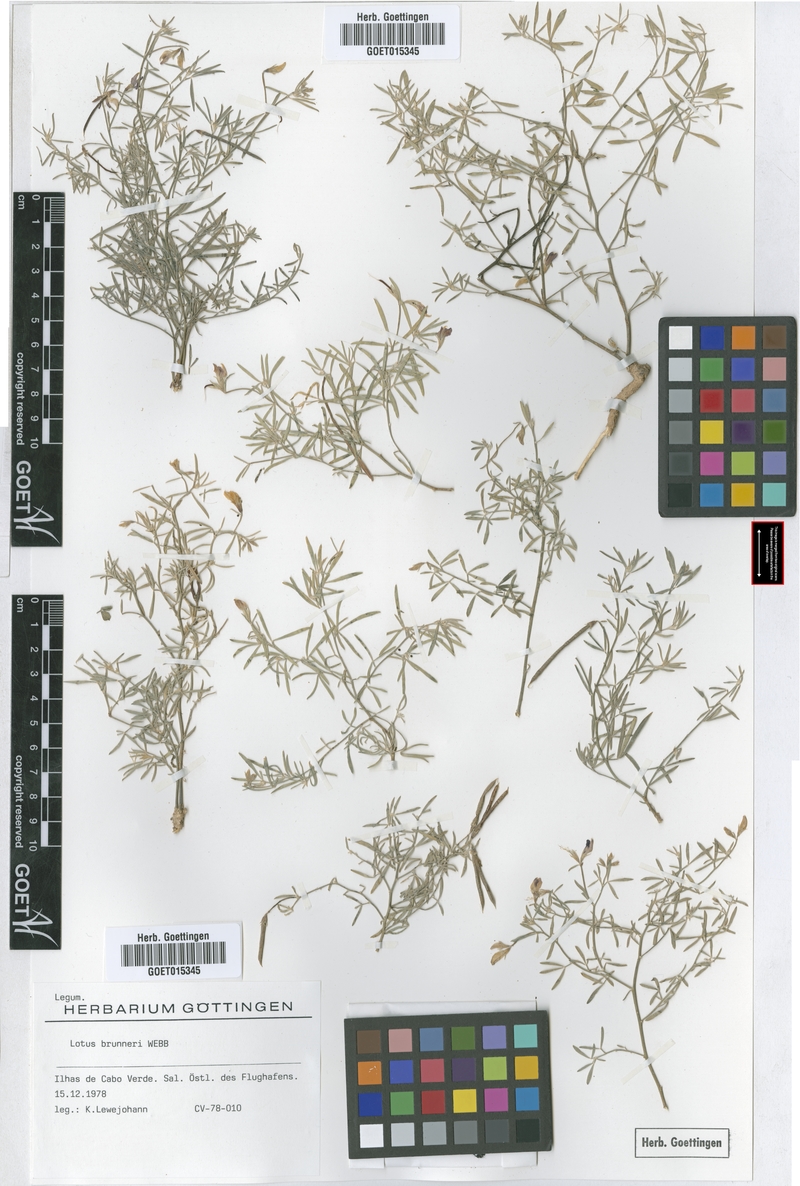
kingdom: Plantae
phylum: Tracheophyta
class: Magnoliopsida
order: Fabales
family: Fabaceae
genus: Lotus
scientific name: Lotus brunneri
